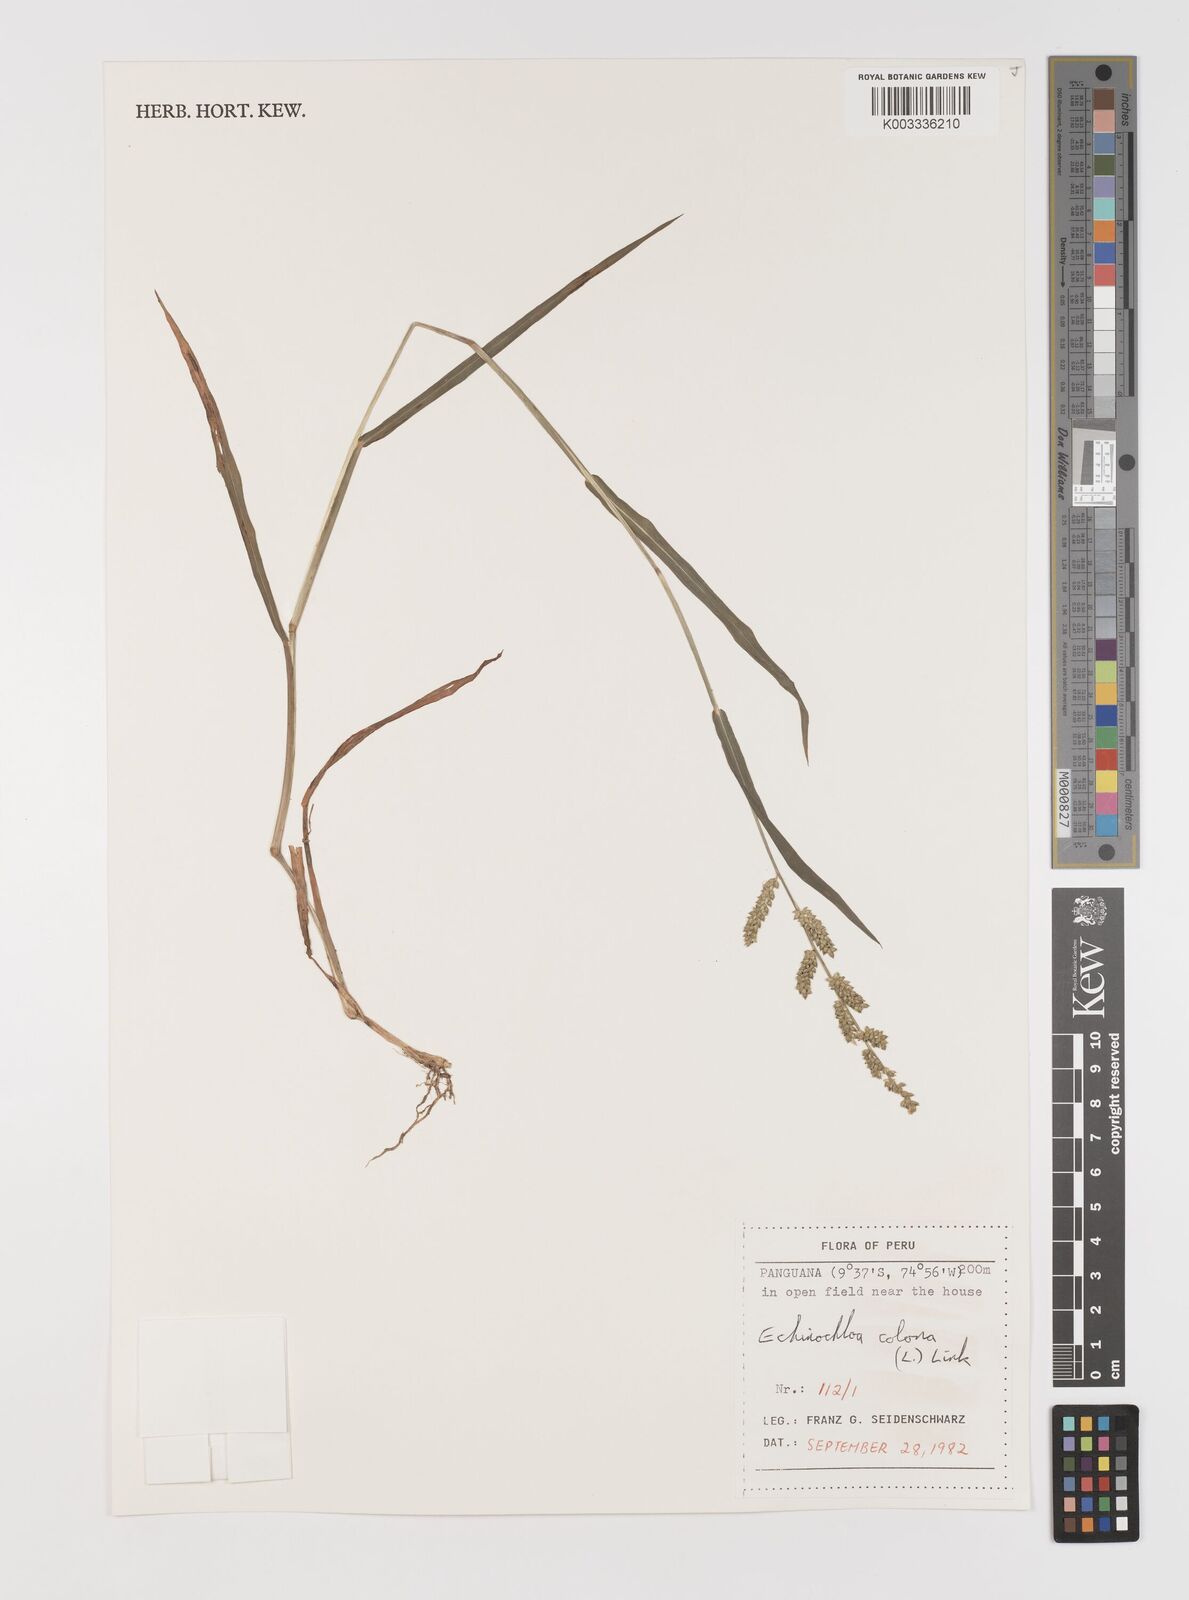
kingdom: Plantae
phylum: Tracheophyta
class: Liliopsida
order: Poales
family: Poaceae
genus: Echinochloa
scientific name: Echinochloa colonum
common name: Jungle rice
